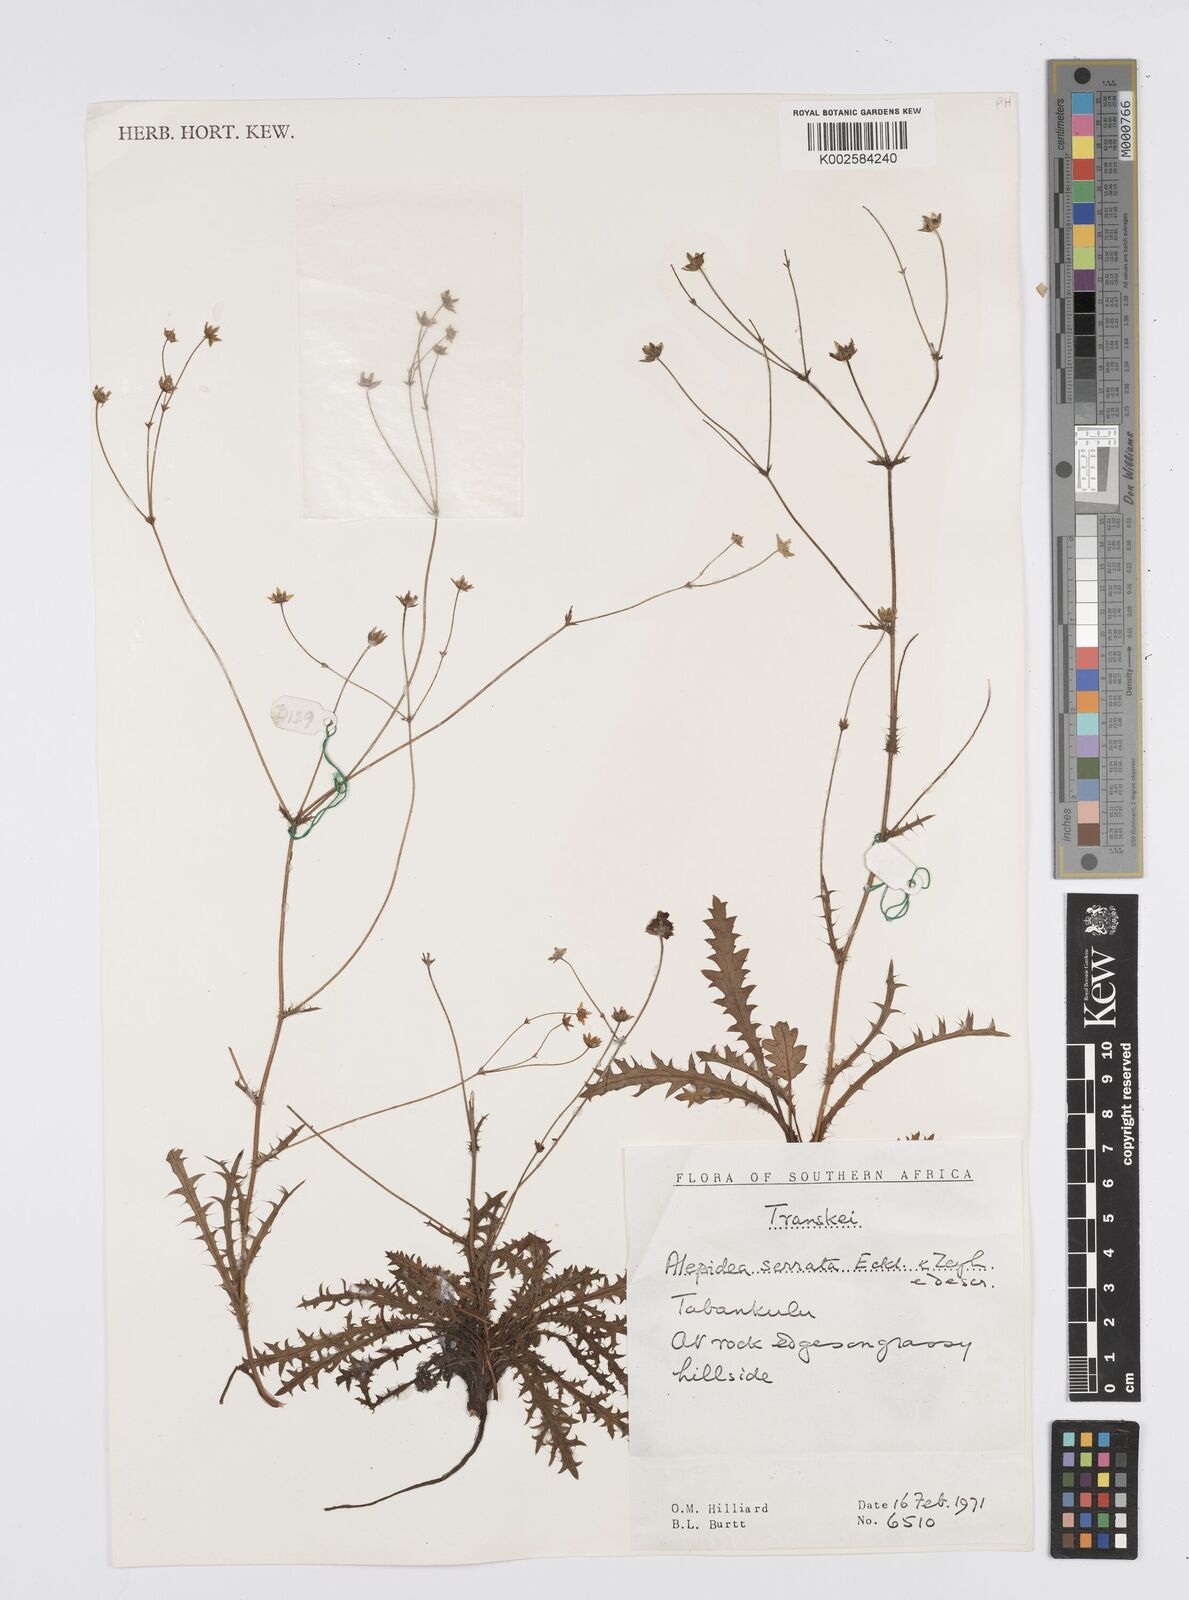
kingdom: Plantae
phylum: Tracheophyta
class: Magnoliopsida
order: Apiales
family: Apiaceae
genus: Alepidea
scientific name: Alepidea cirsiifolia
